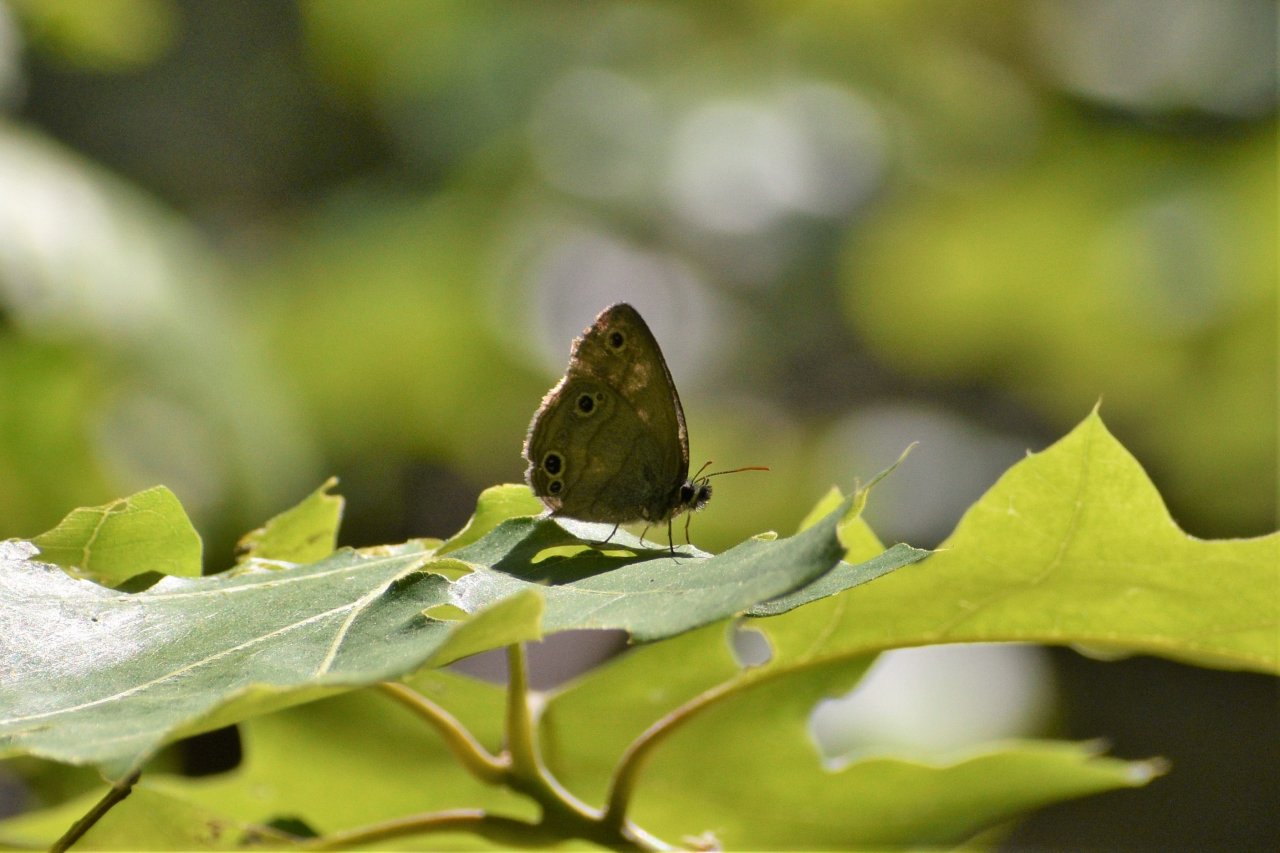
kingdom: Animalia
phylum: Arthropoda
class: Insecta
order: Lepidoptera
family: Nymphalidae
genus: Euptychia
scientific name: Euptychia cymela
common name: Little Wood Satyr
